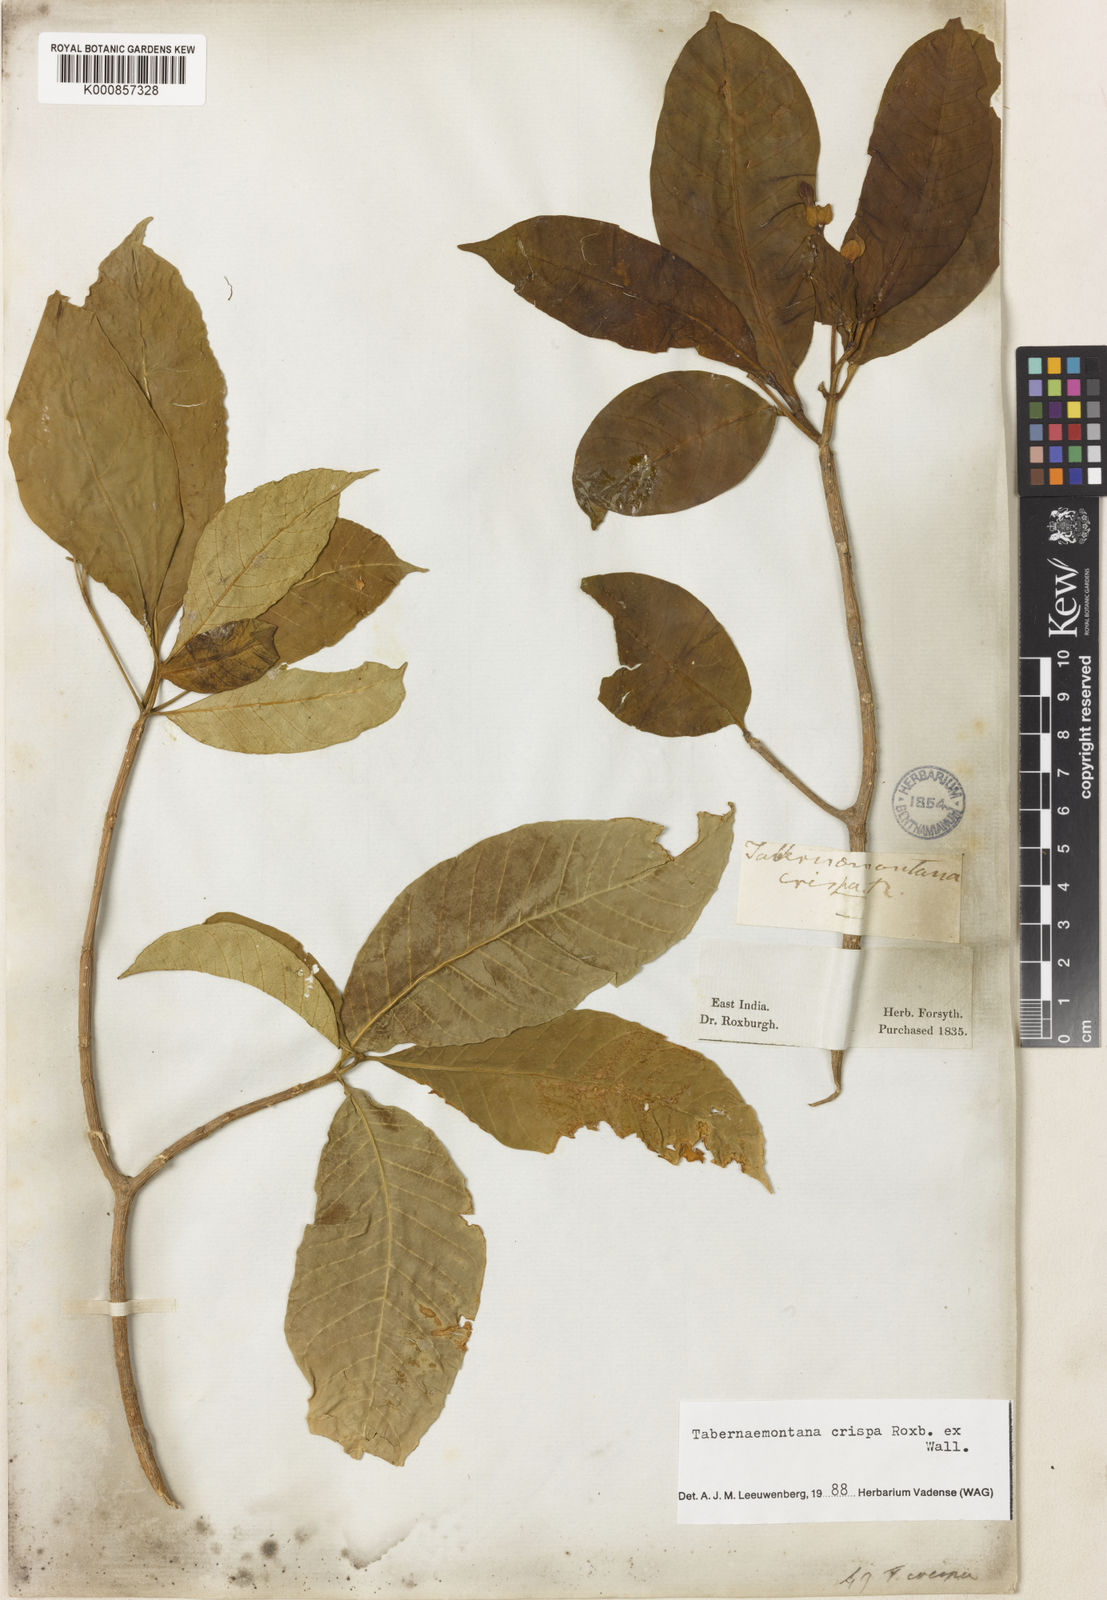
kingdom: Plantae
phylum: Tracheophyta
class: Magnoliopsida
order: Gentianales
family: Apocynaceae
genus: Tabernaemontana
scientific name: Tabernaemontana rostrata
